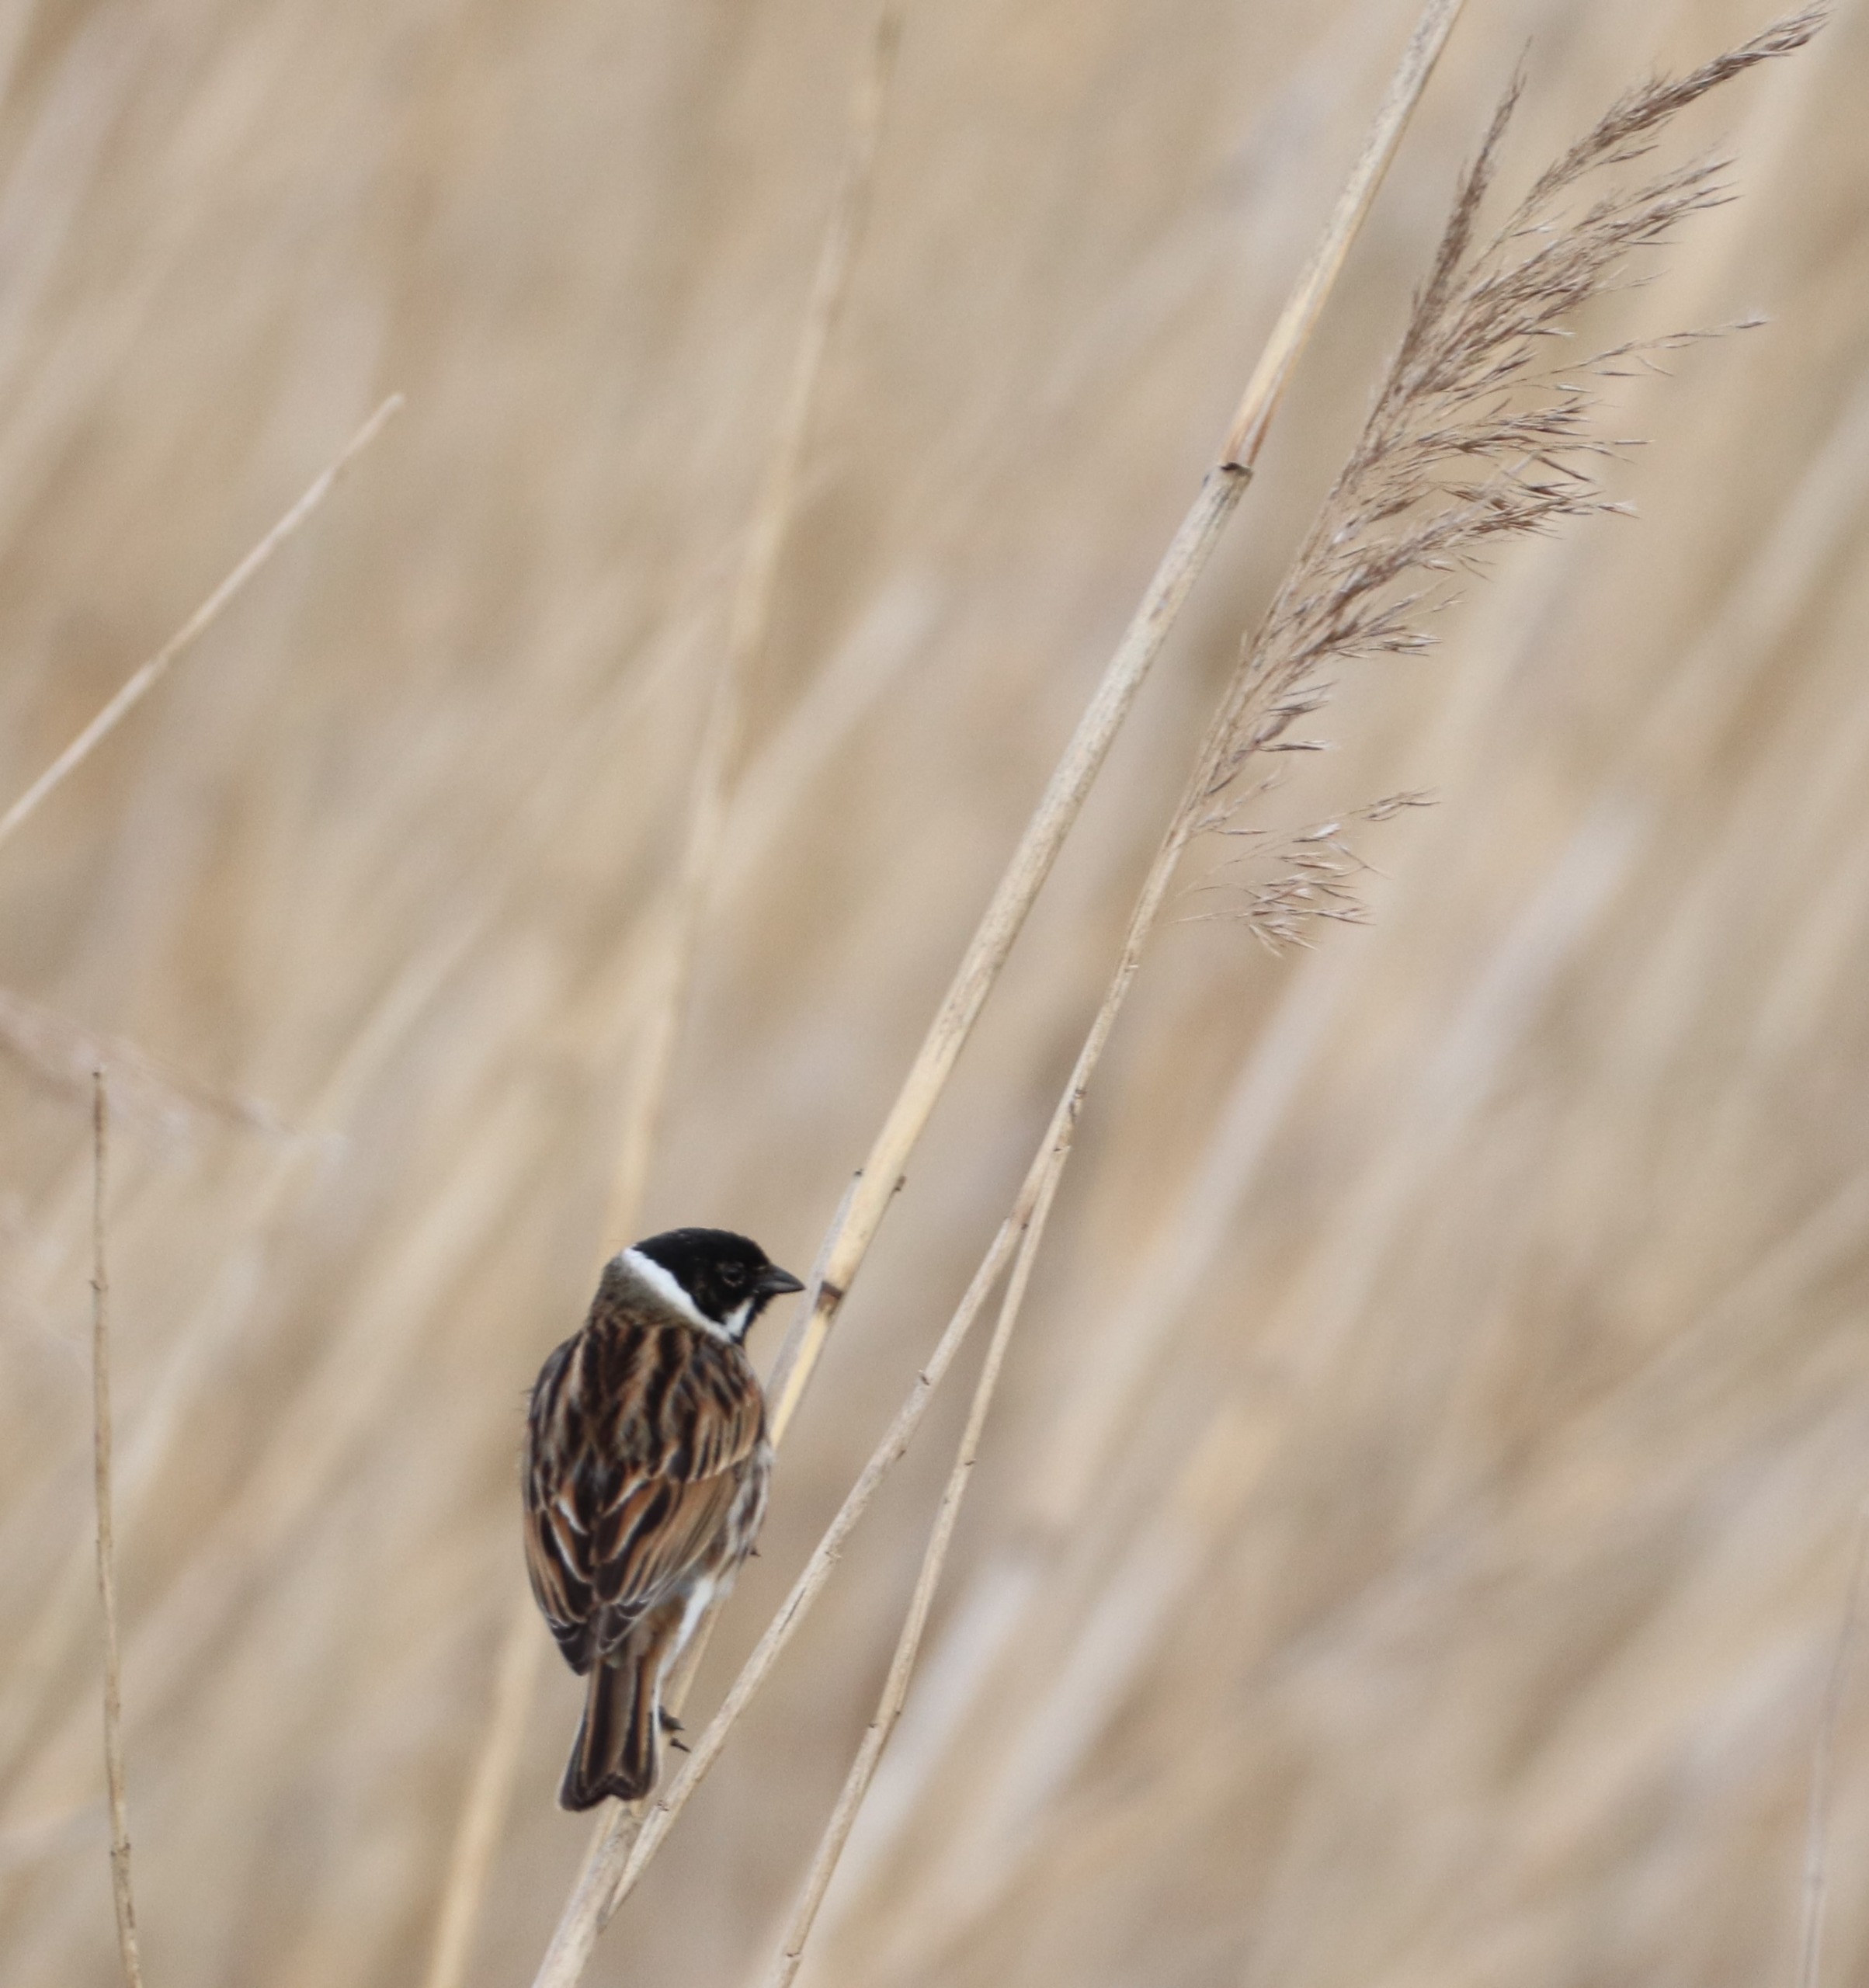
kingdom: Animalia
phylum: Chordata
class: Aves
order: Passeriformes
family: Emberizidae
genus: Emberiza
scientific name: Emberiza schoeniclus
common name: Rørspurv
